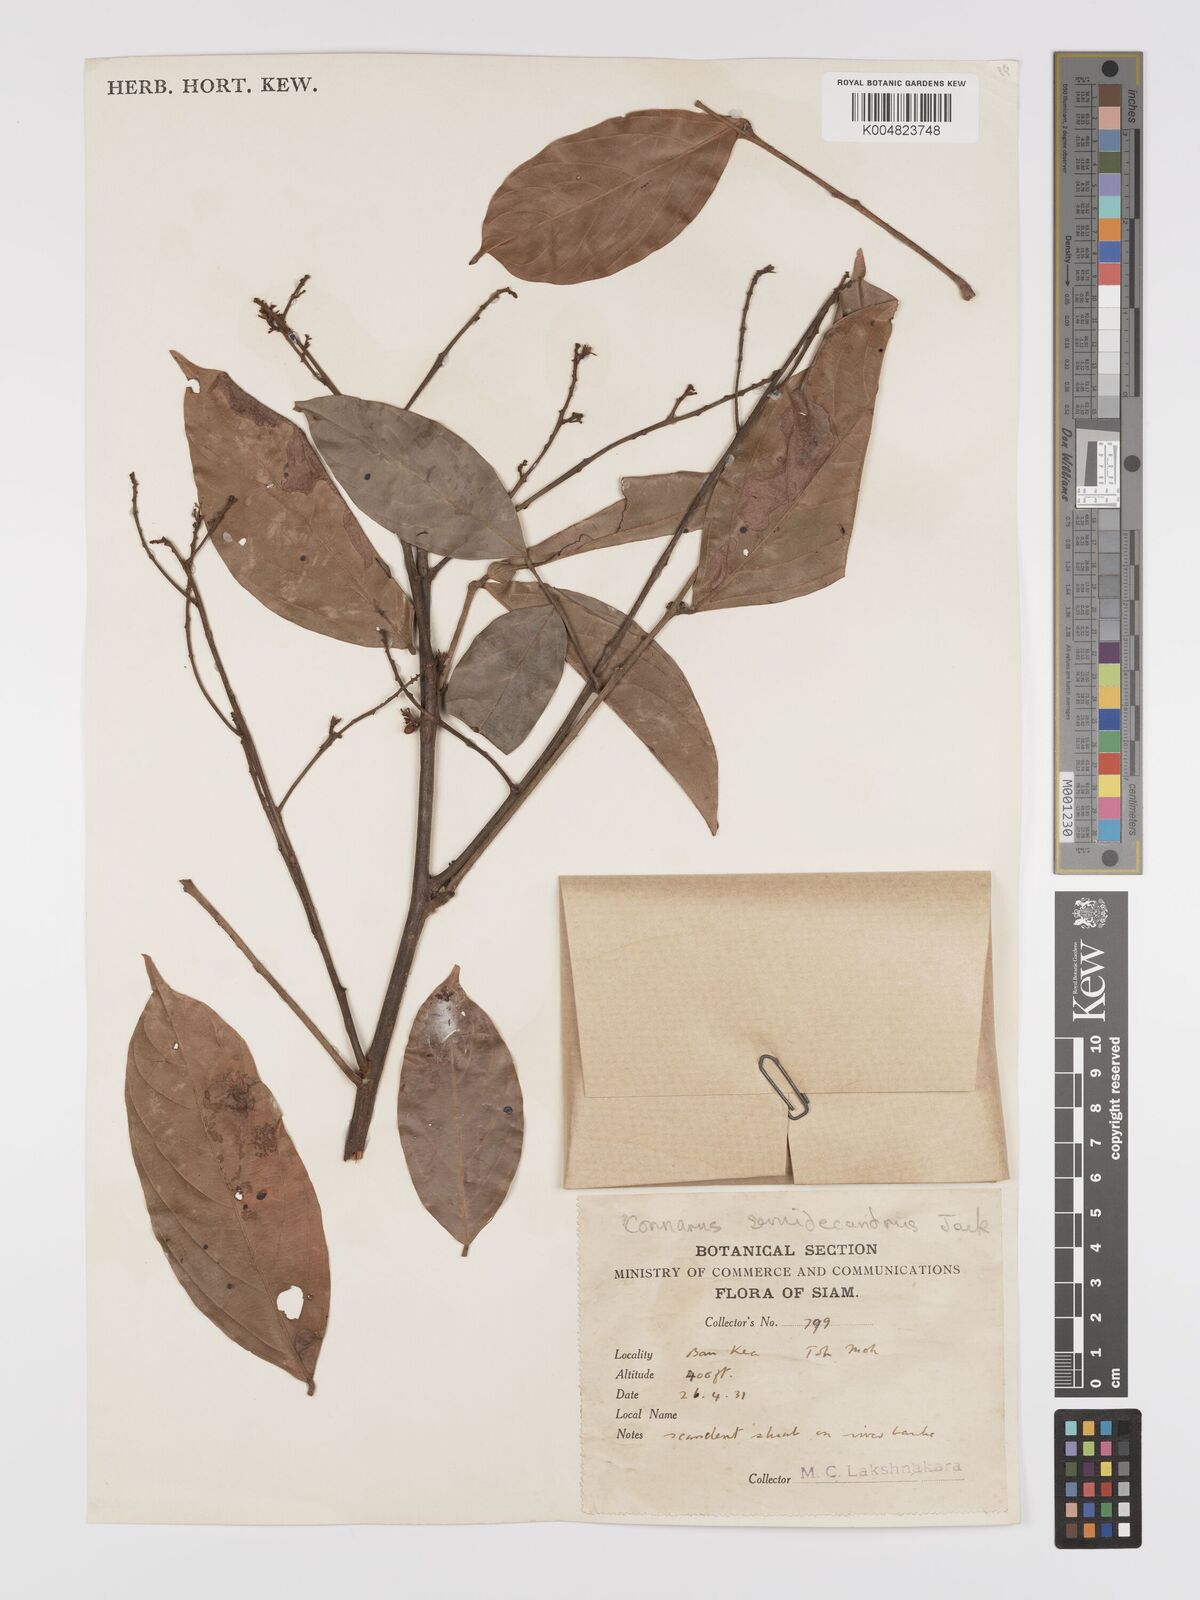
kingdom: Plantae
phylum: Tracheophyta
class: Magnoliopsida
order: Oxalidales
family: Connaraceae
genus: Connarus
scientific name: Connarus semidecandrus
